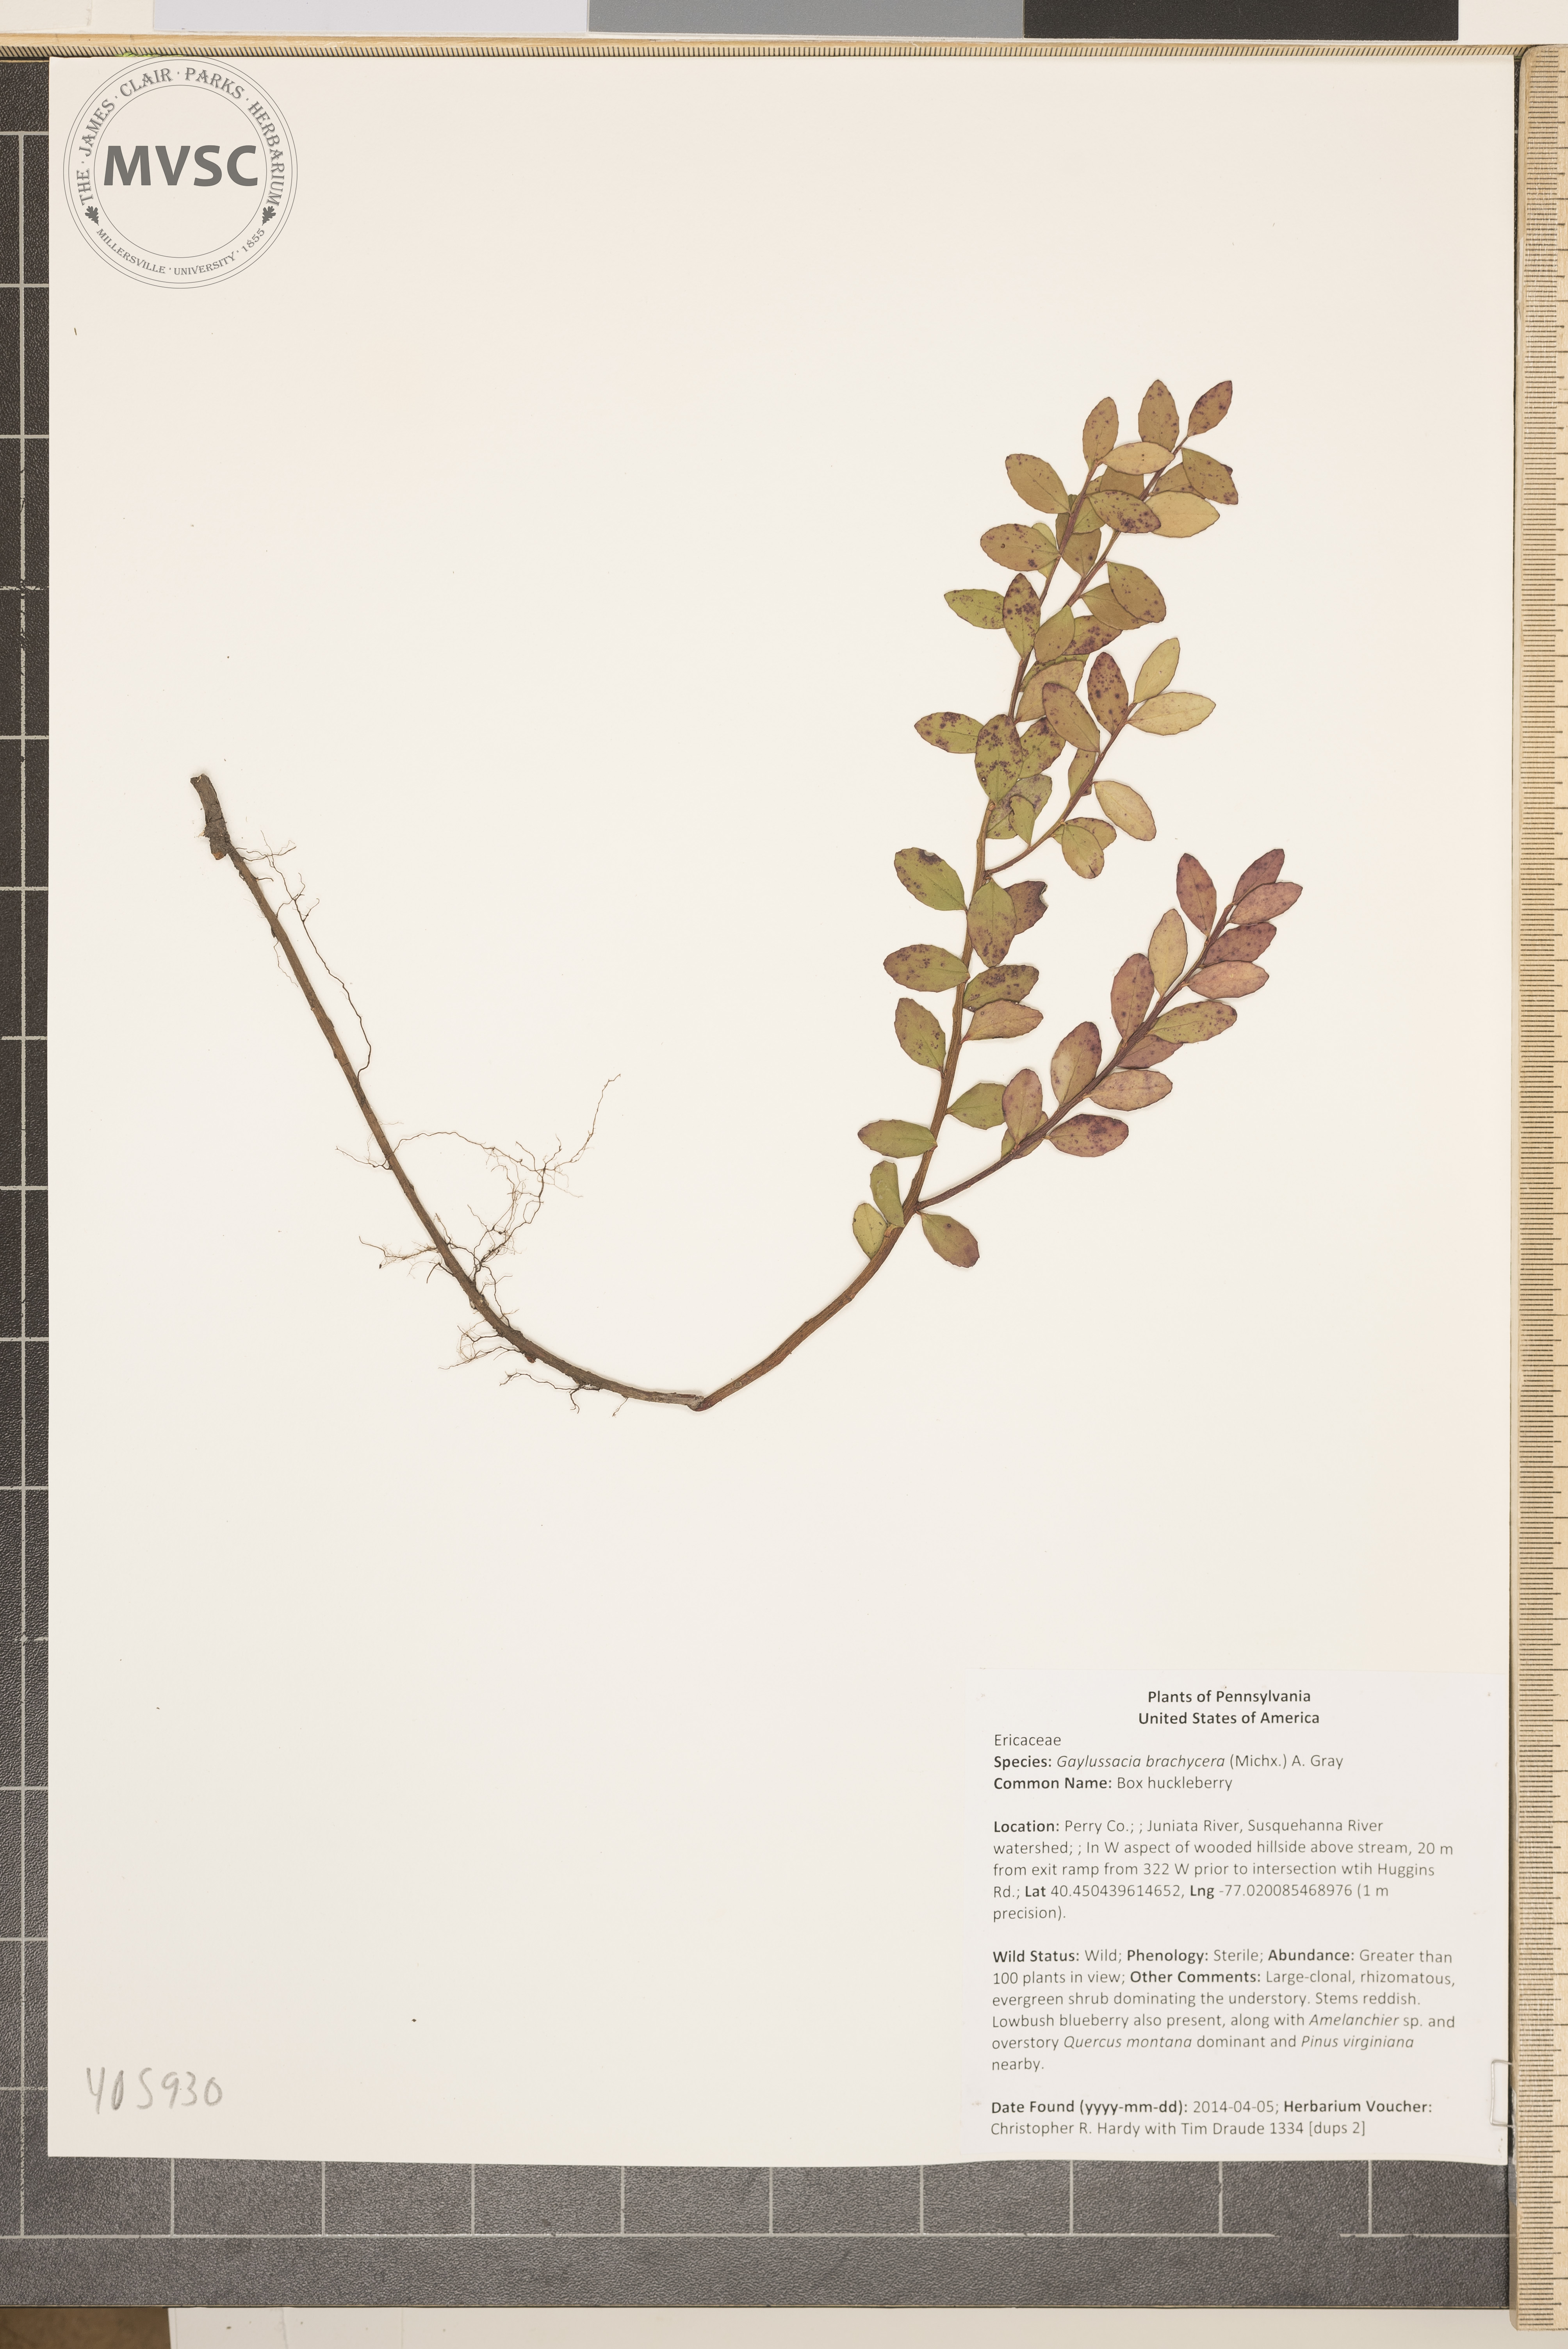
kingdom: Plantae
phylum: Tracheophyta
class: Magnoliopsida
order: Ericales
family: Ericaceae
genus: Gaylussacia
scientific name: Gaylussacia brachycera
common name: Box huckleberry
